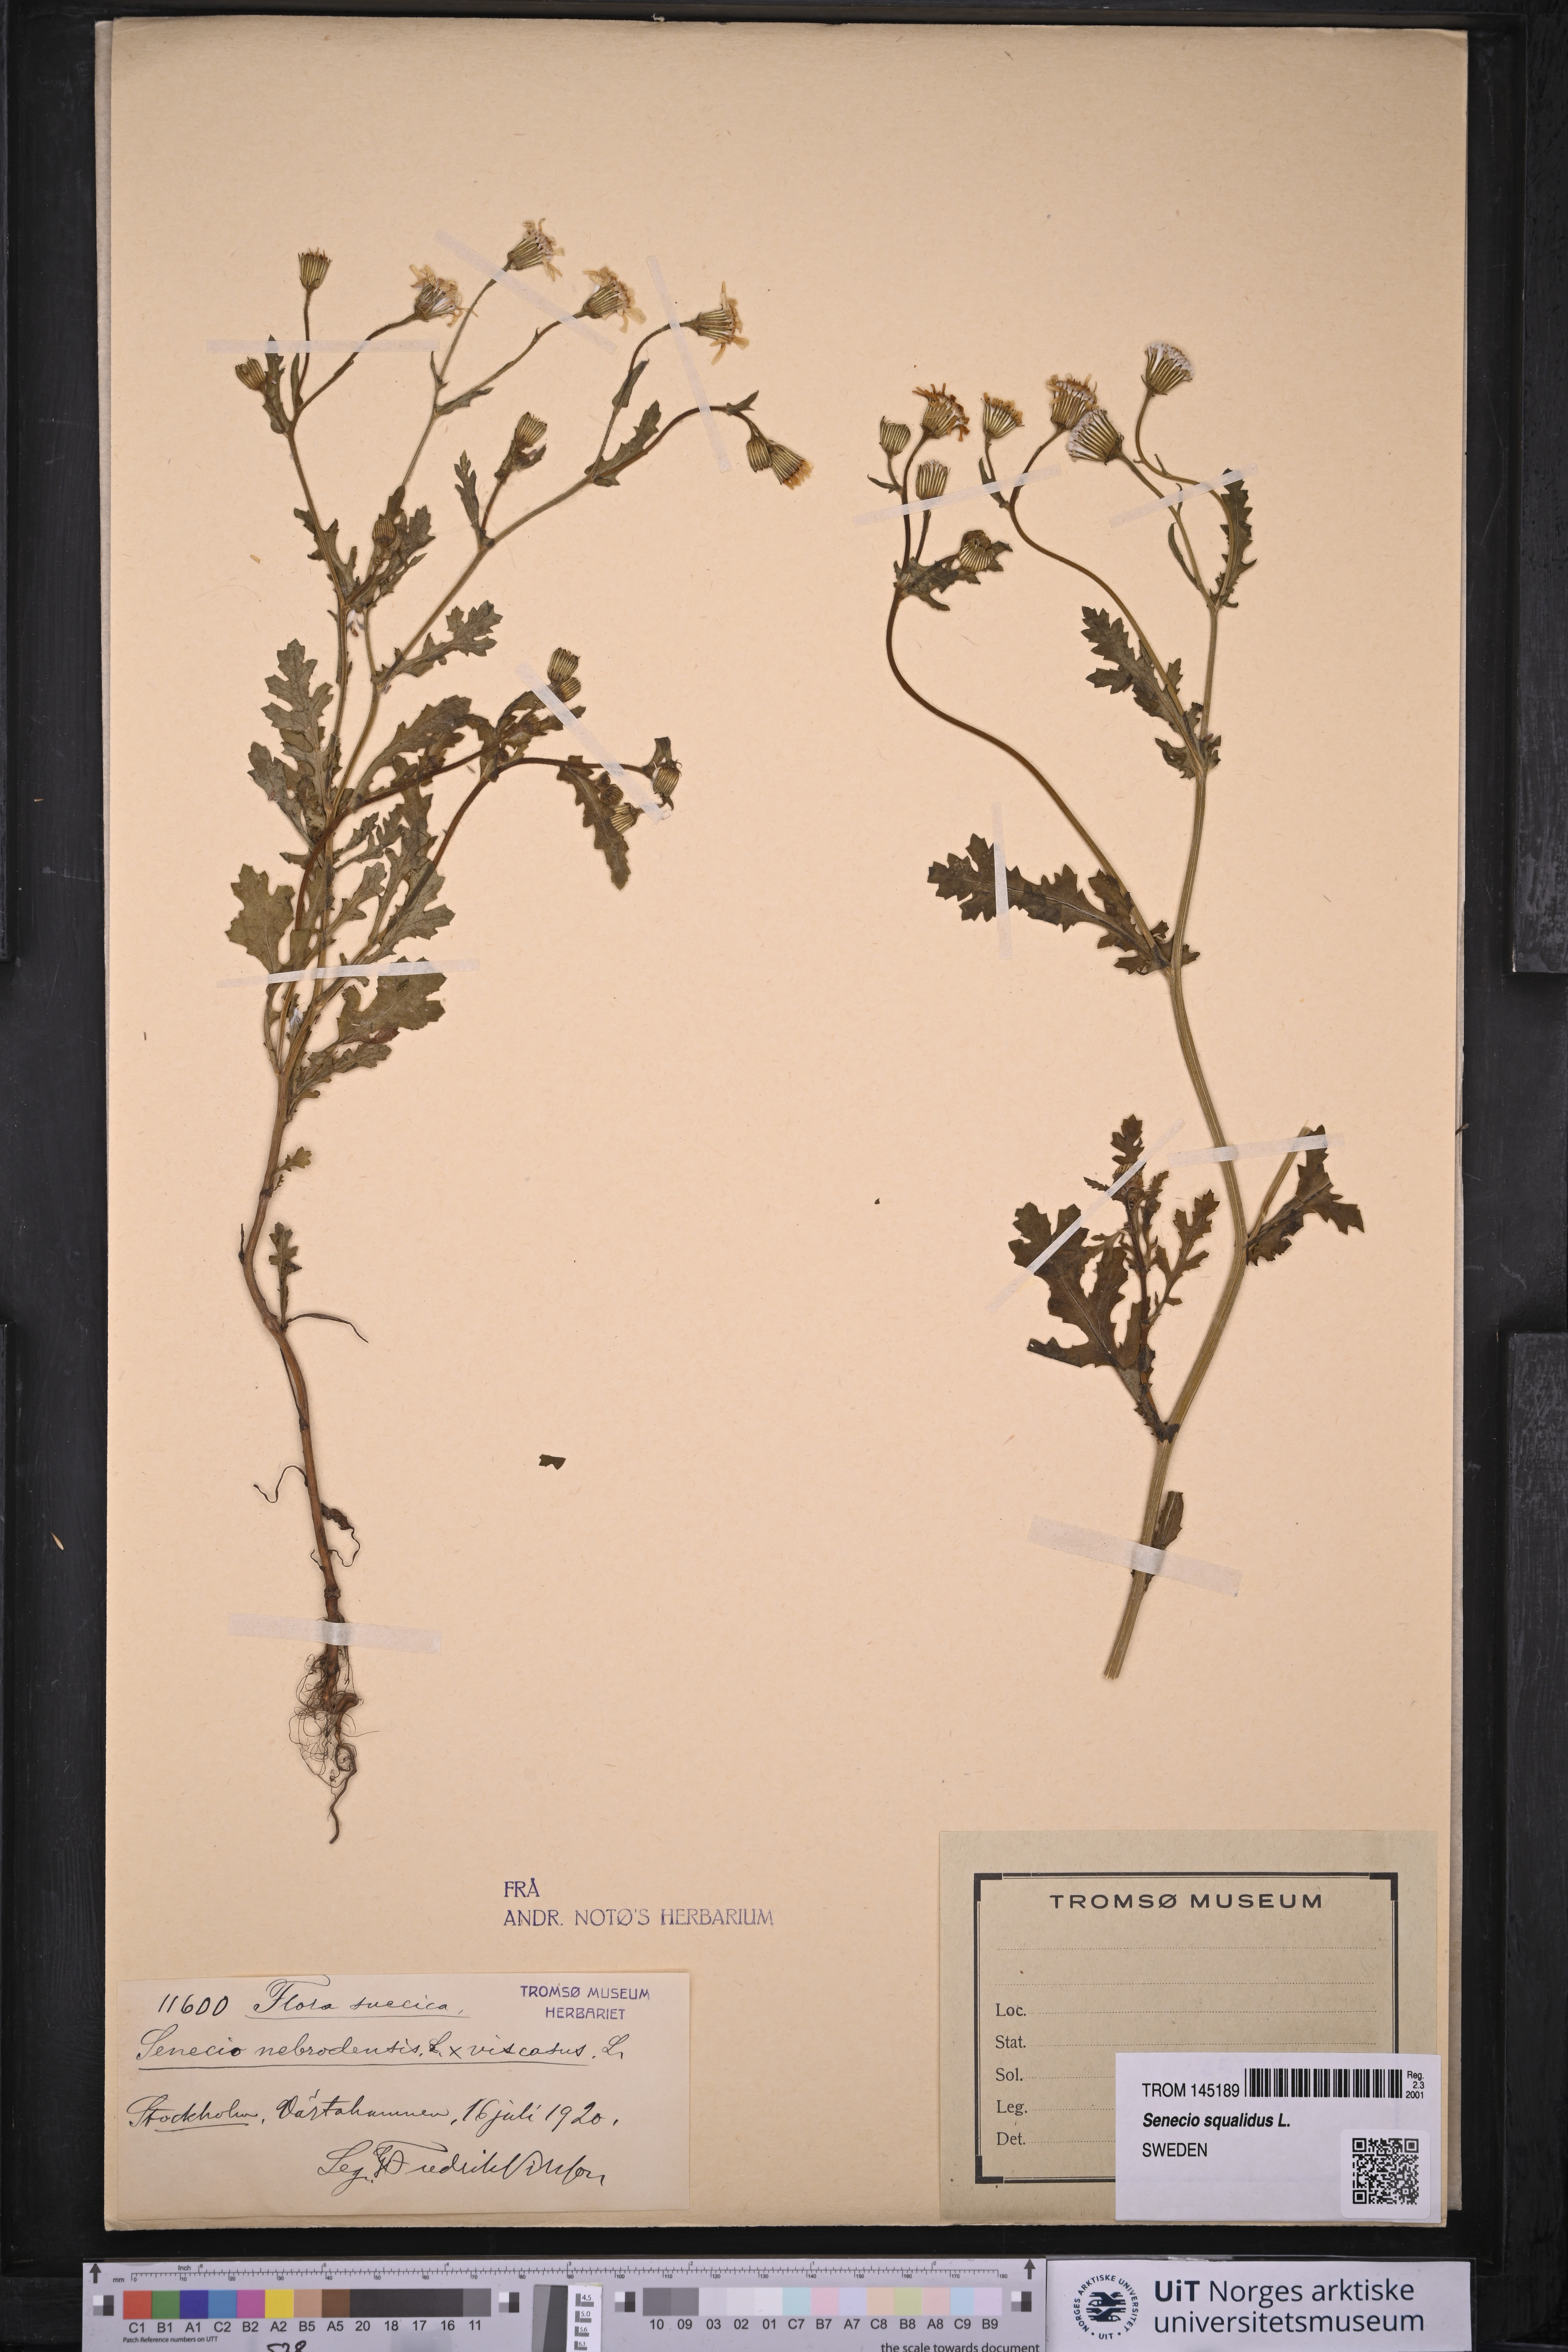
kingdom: Plantae
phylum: Tracheophyta
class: Magnoliopsida
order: Asterales
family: Asteraceae
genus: Senecio
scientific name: Senecio squalidus
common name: Oxford ragwort
